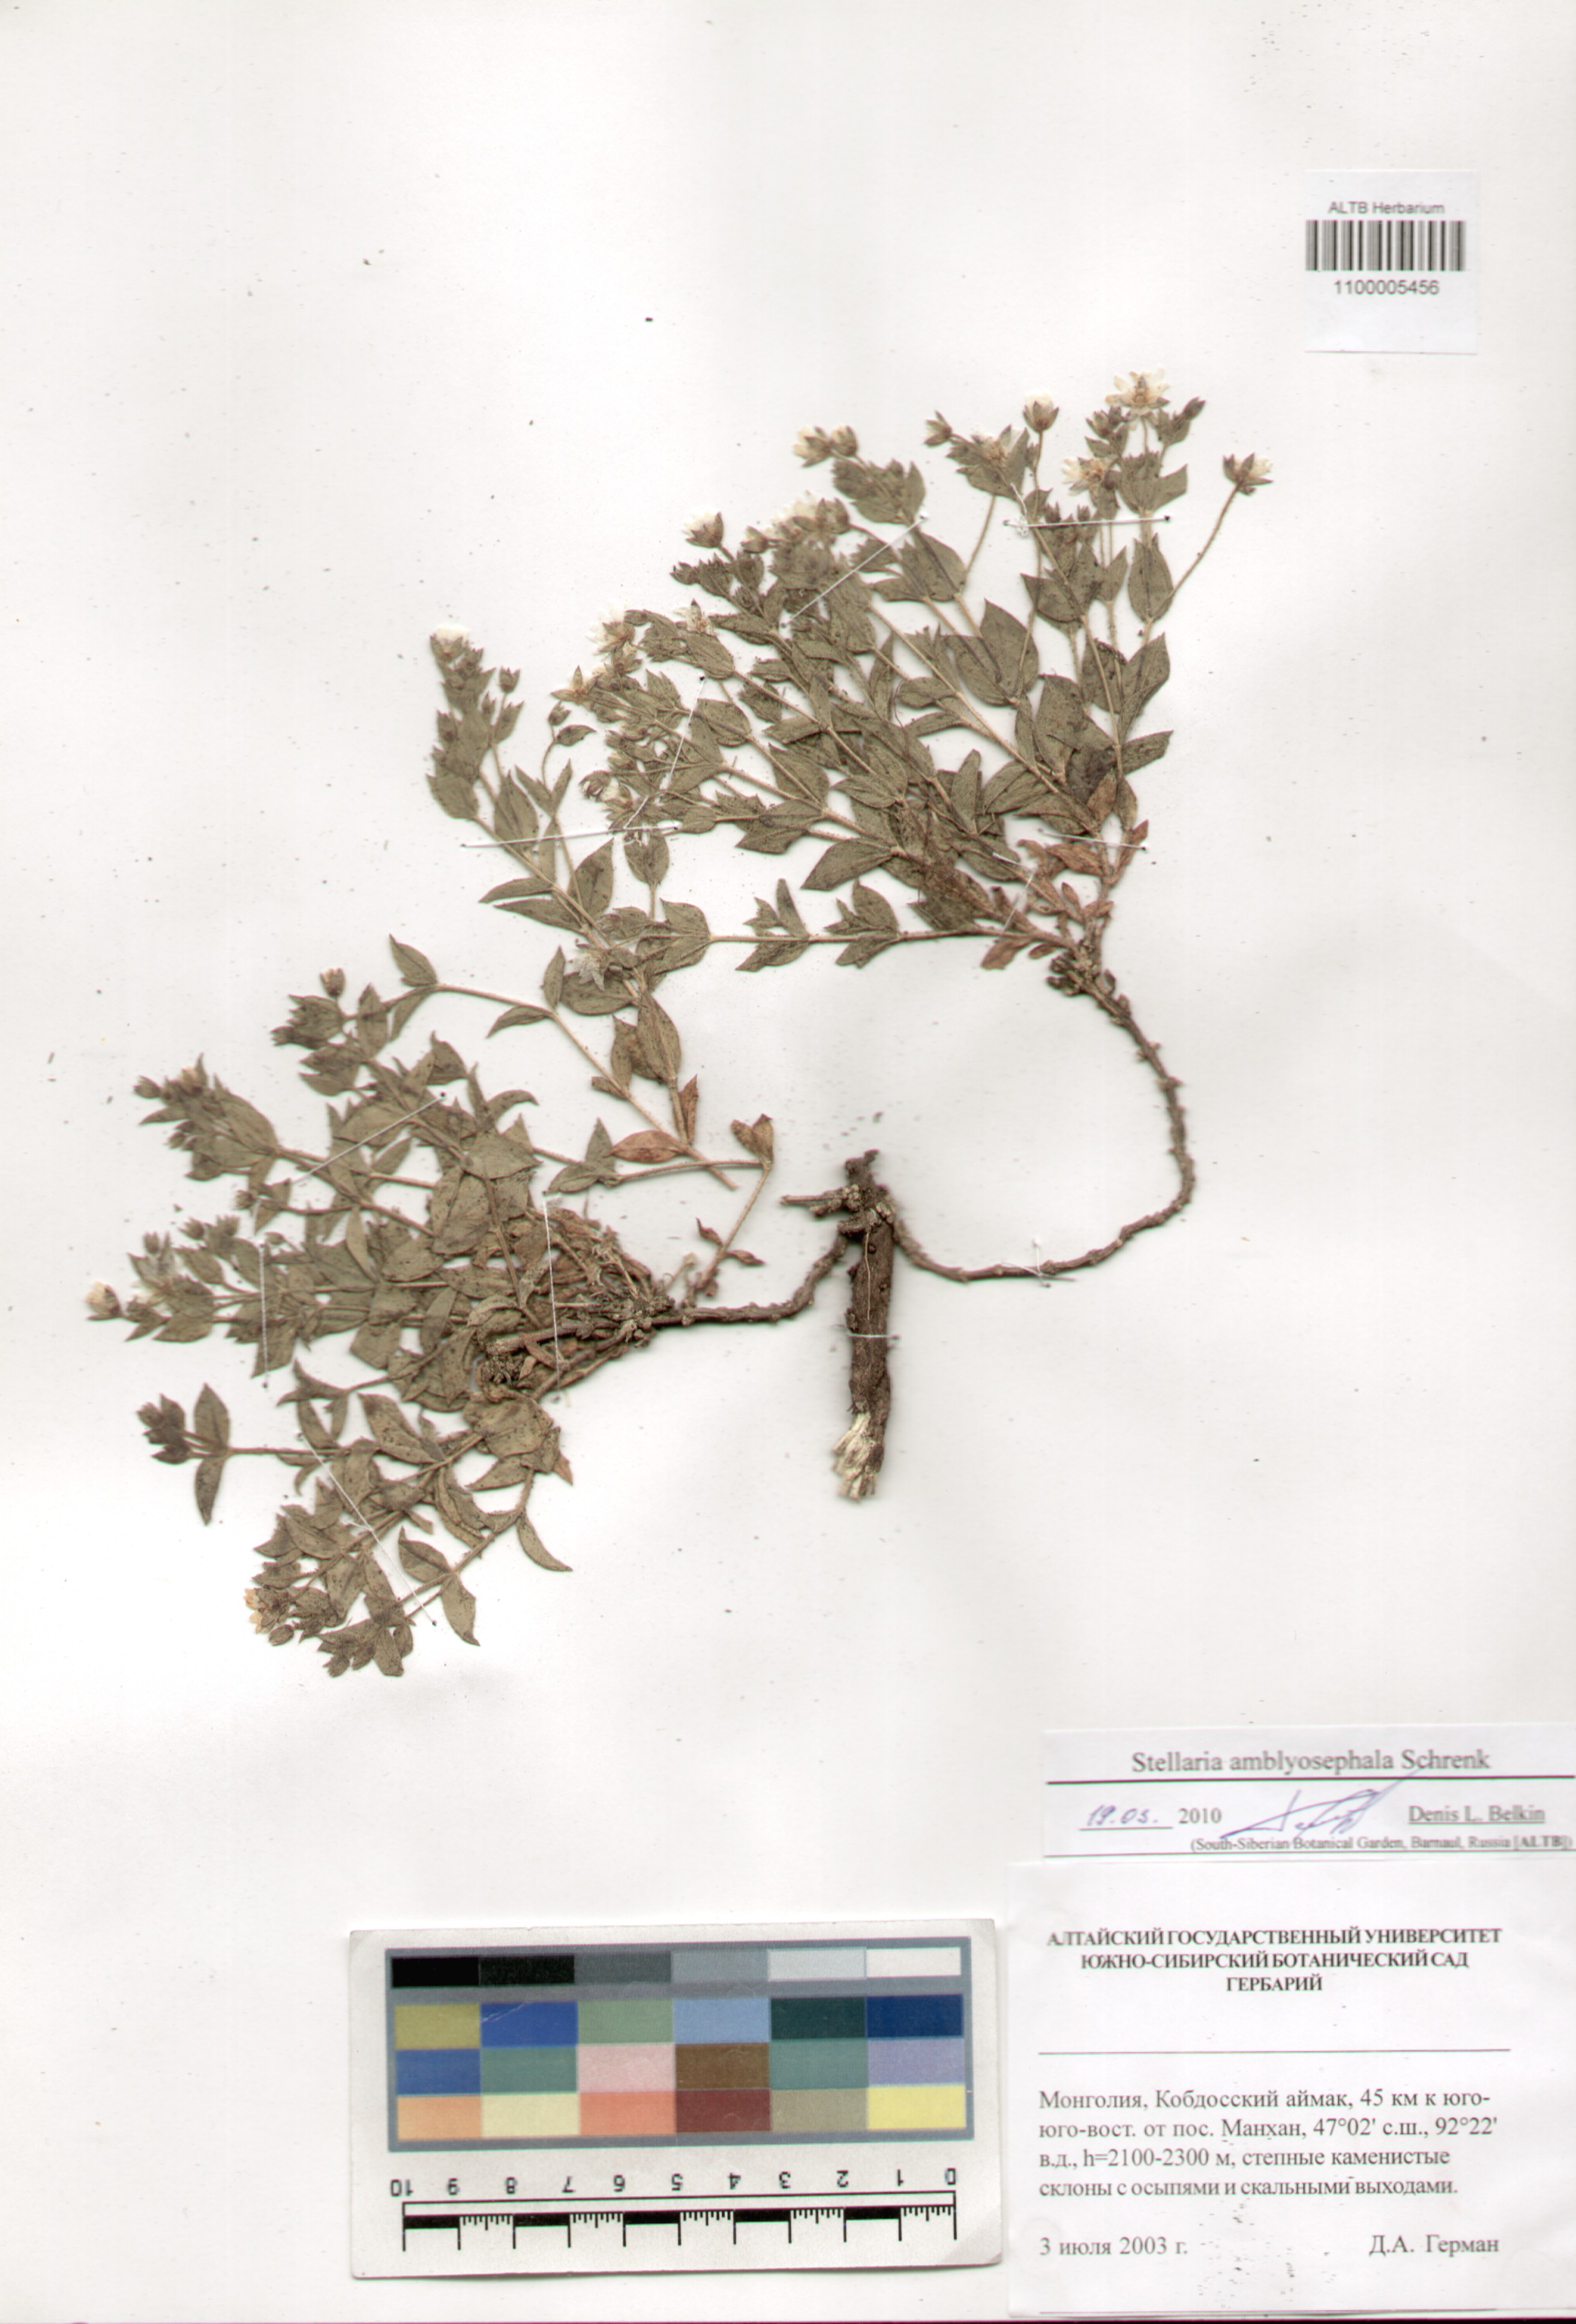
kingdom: Plantae
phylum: Tracheophyta
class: Magnoliopsida
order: Caryophyllales
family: Caryophyllaceae
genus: Stellaria
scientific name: Stellaria amblyosepala
